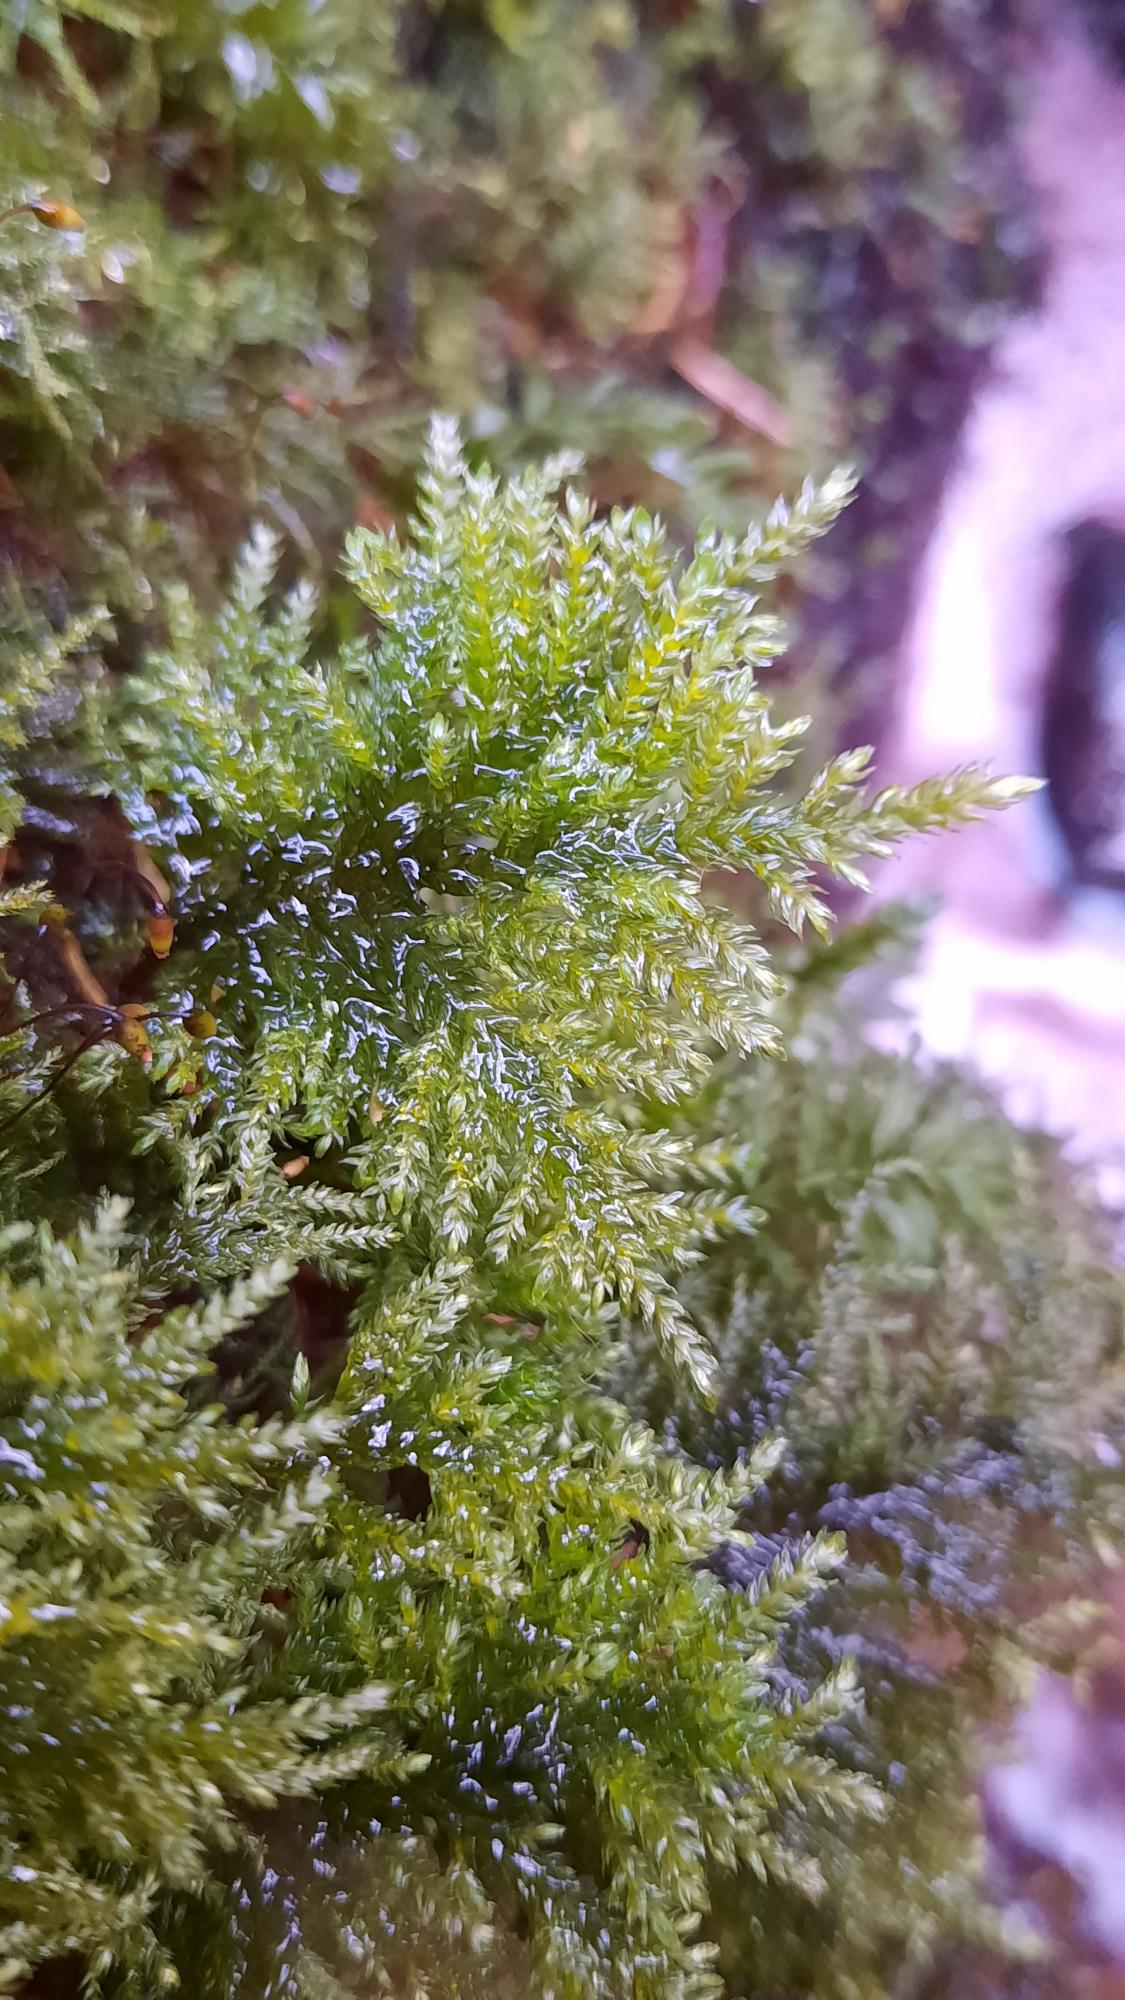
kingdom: Plantae
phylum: Bryophyta
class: Bryopsida
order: Hypnales
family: Neckeraceae
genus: Thamnobryum
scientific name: Thamnobryum alopecurum
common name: Mat bækkost
